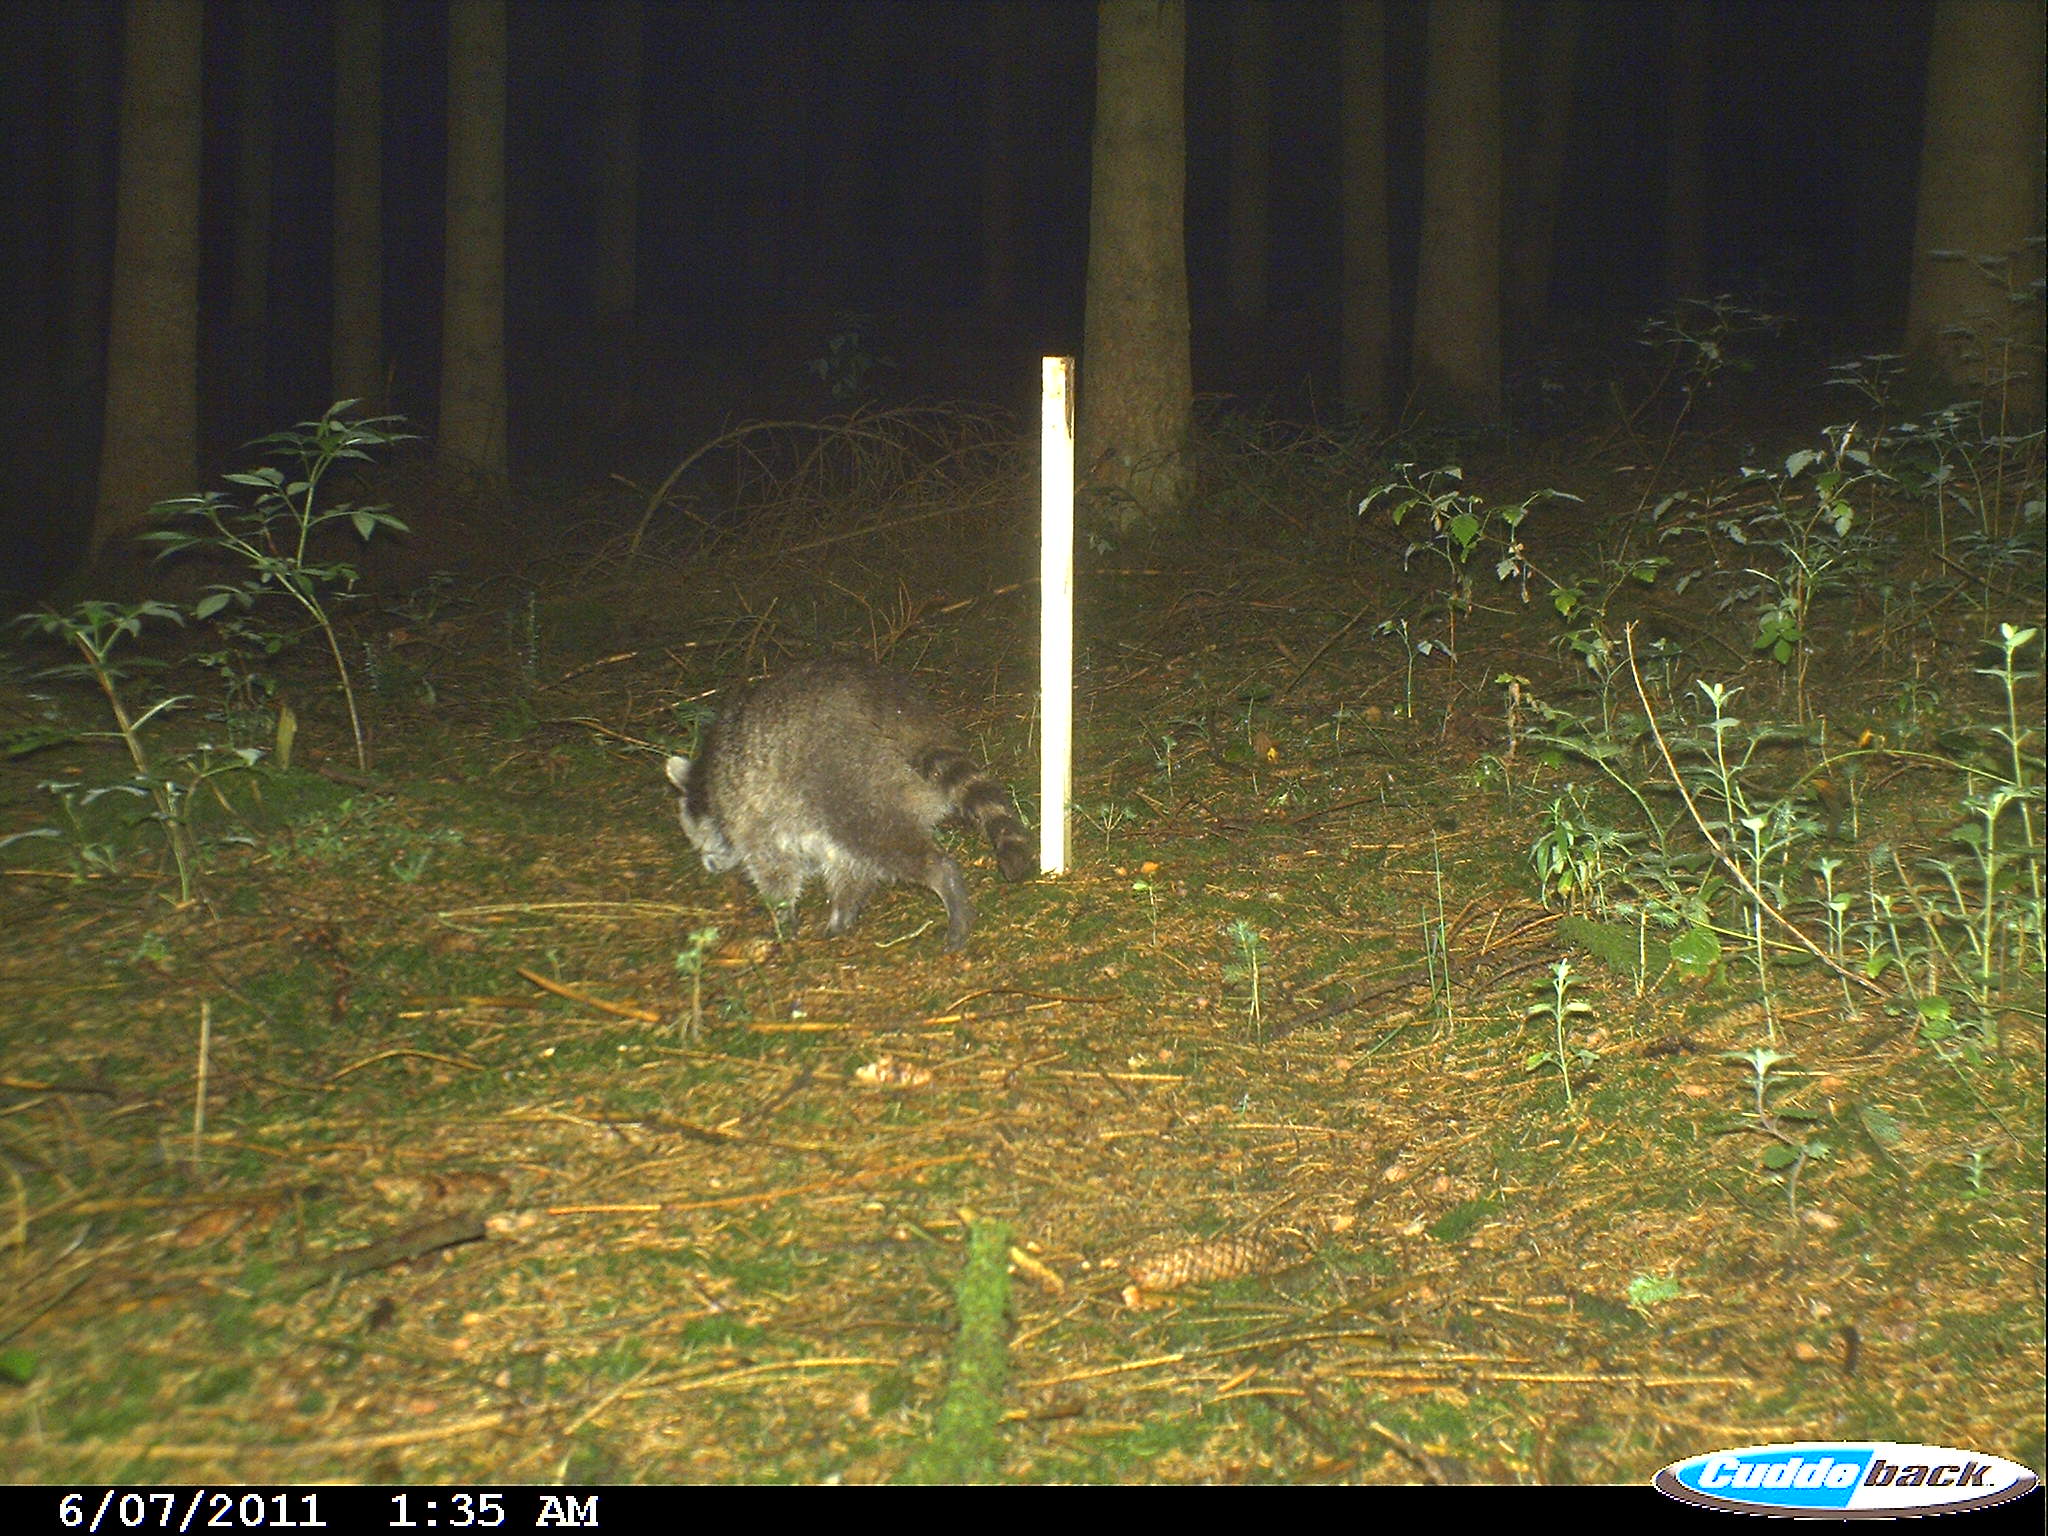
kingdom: Animalia
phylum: Chordata
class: Mammalia
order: Carnivora
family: Procyonidae
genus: Procyon
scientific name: Procyon lotor
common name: Raccoon
